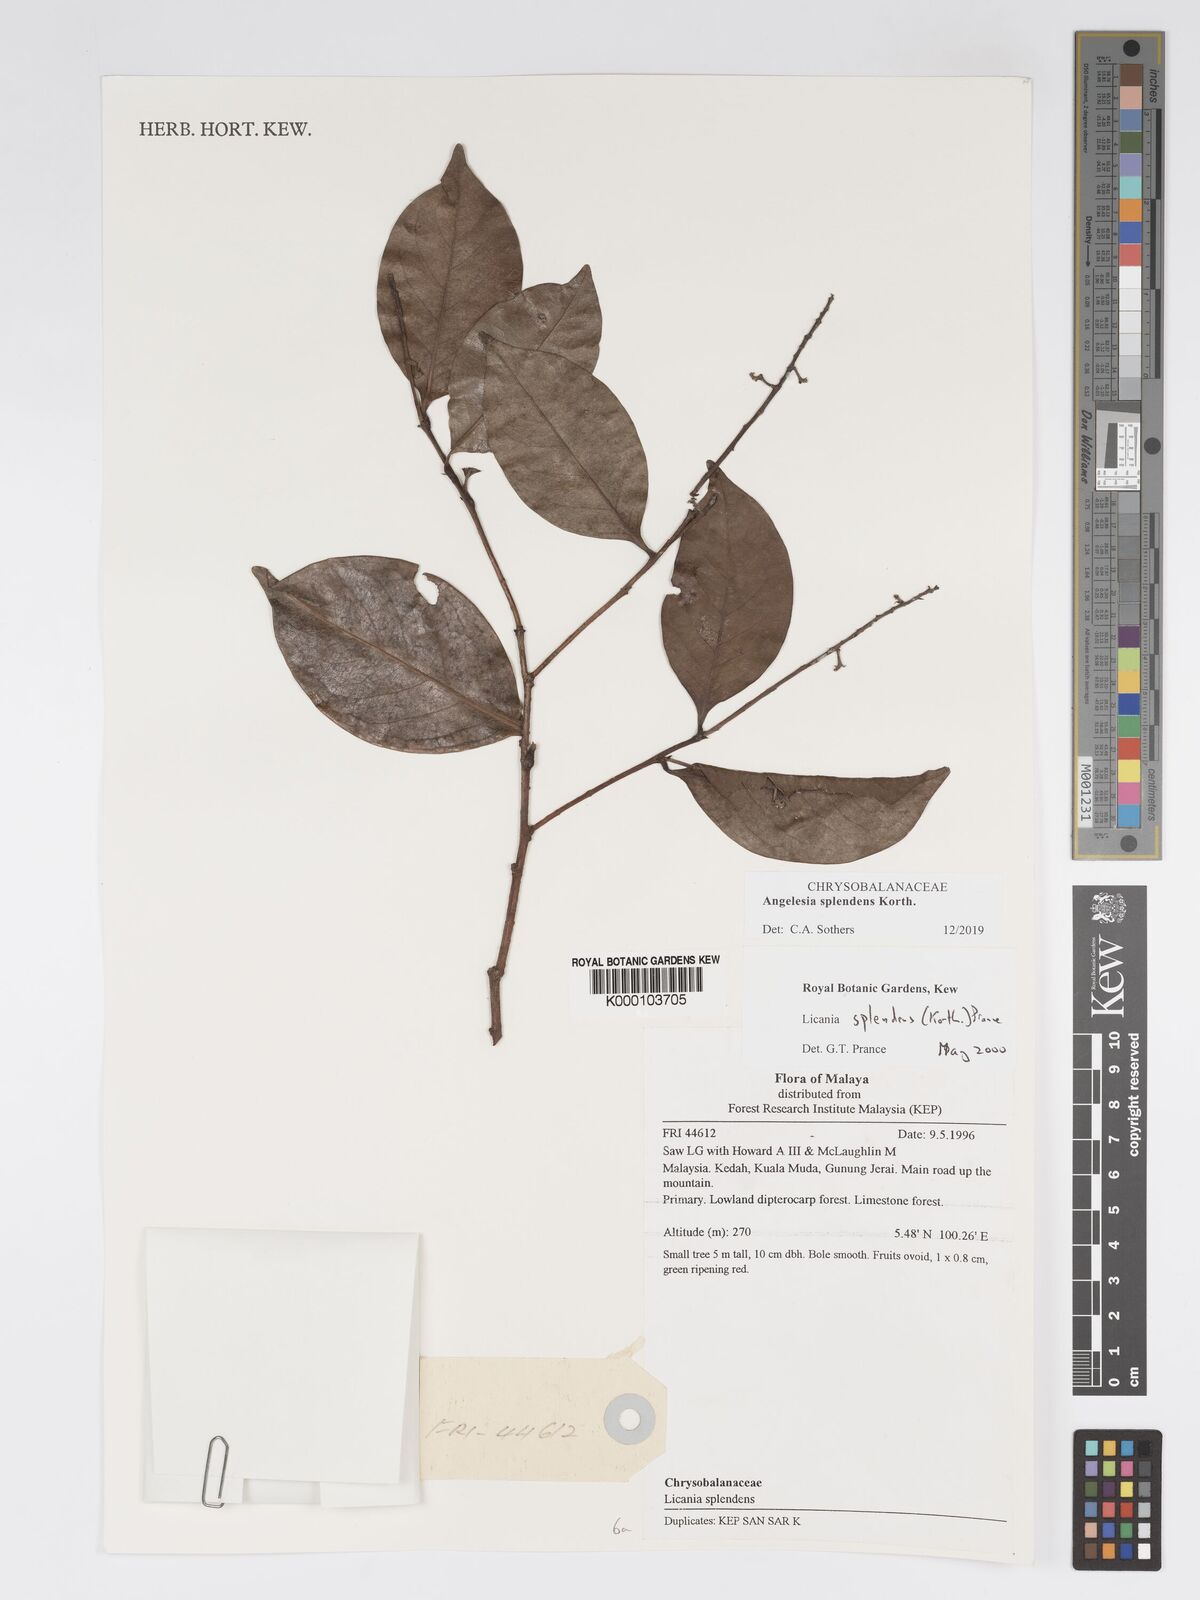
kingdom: Plantae
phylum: Tracheophyta
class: Magnoliopsida
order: Malpighiales
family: Chrysobalanaceae
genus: Angelesia
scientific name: Angelesia splendens
